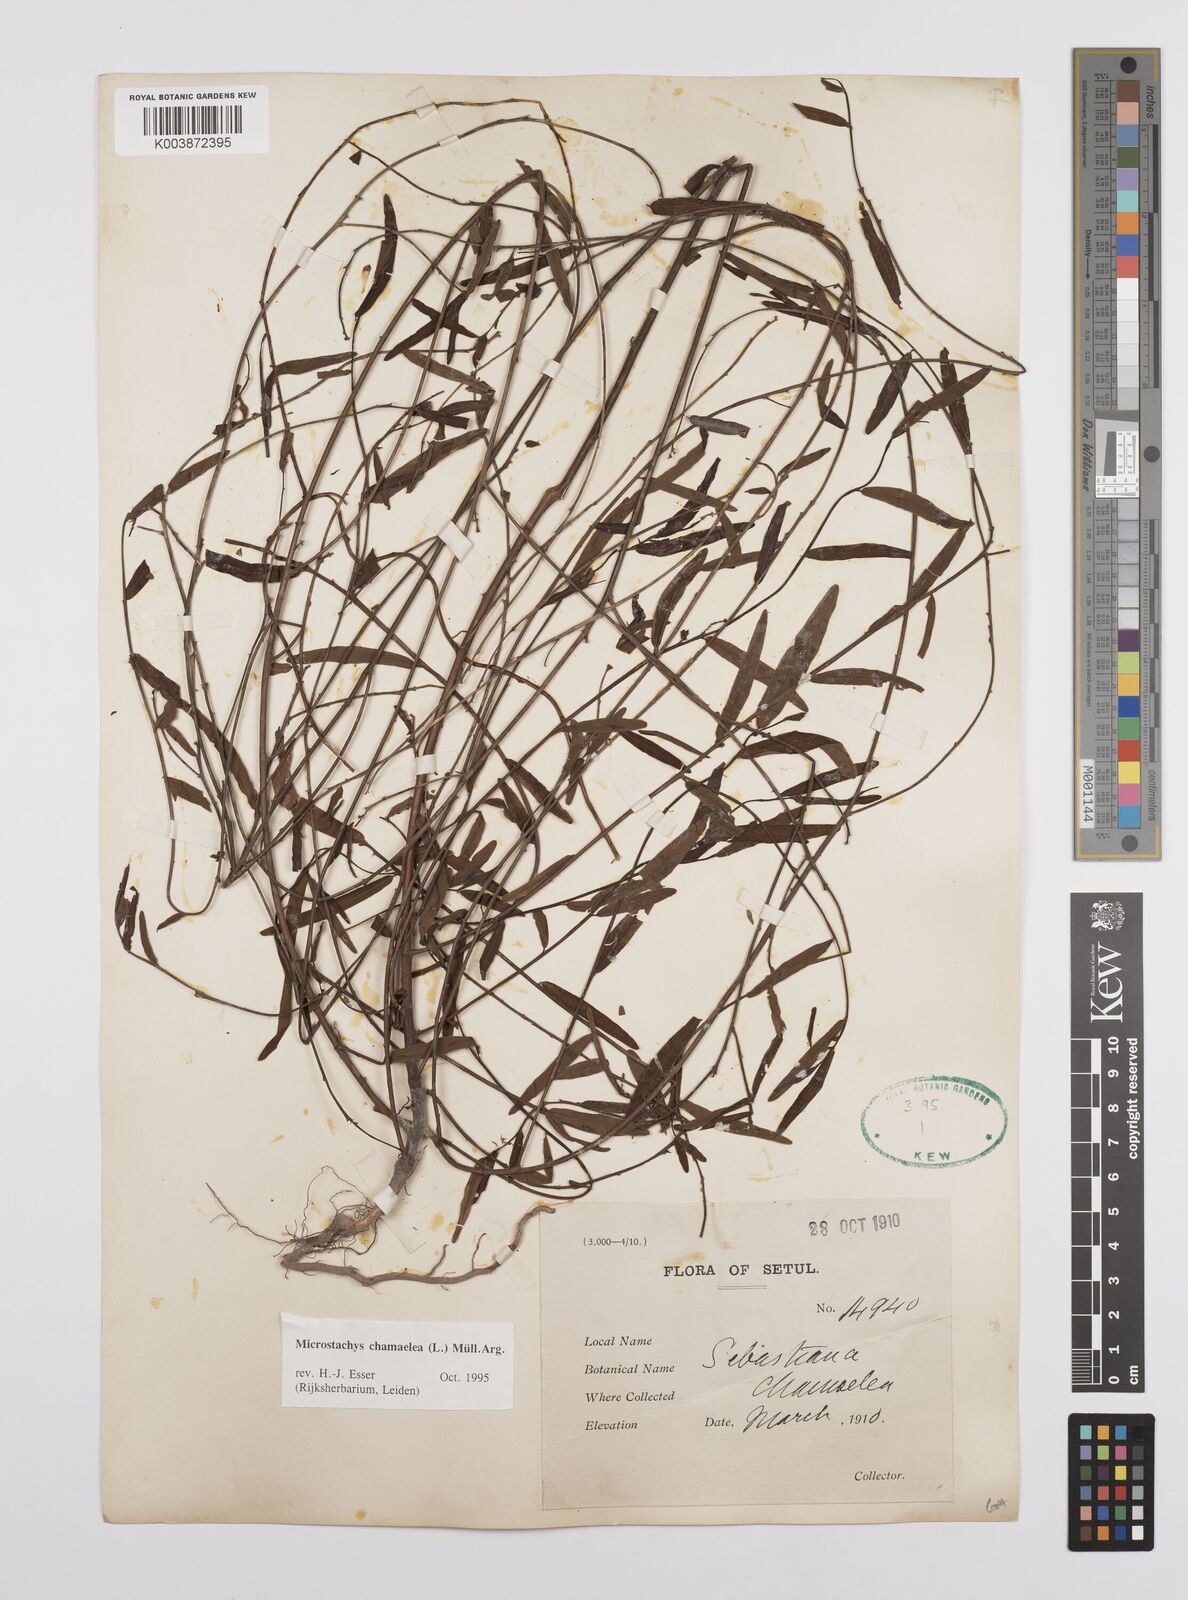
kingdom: Plantae
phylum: Tracheophyta
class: Magnoliopsida
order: Malpighiales
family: Euphorbiaceae
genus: Microstachys
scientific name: Microstachys chamaelea
